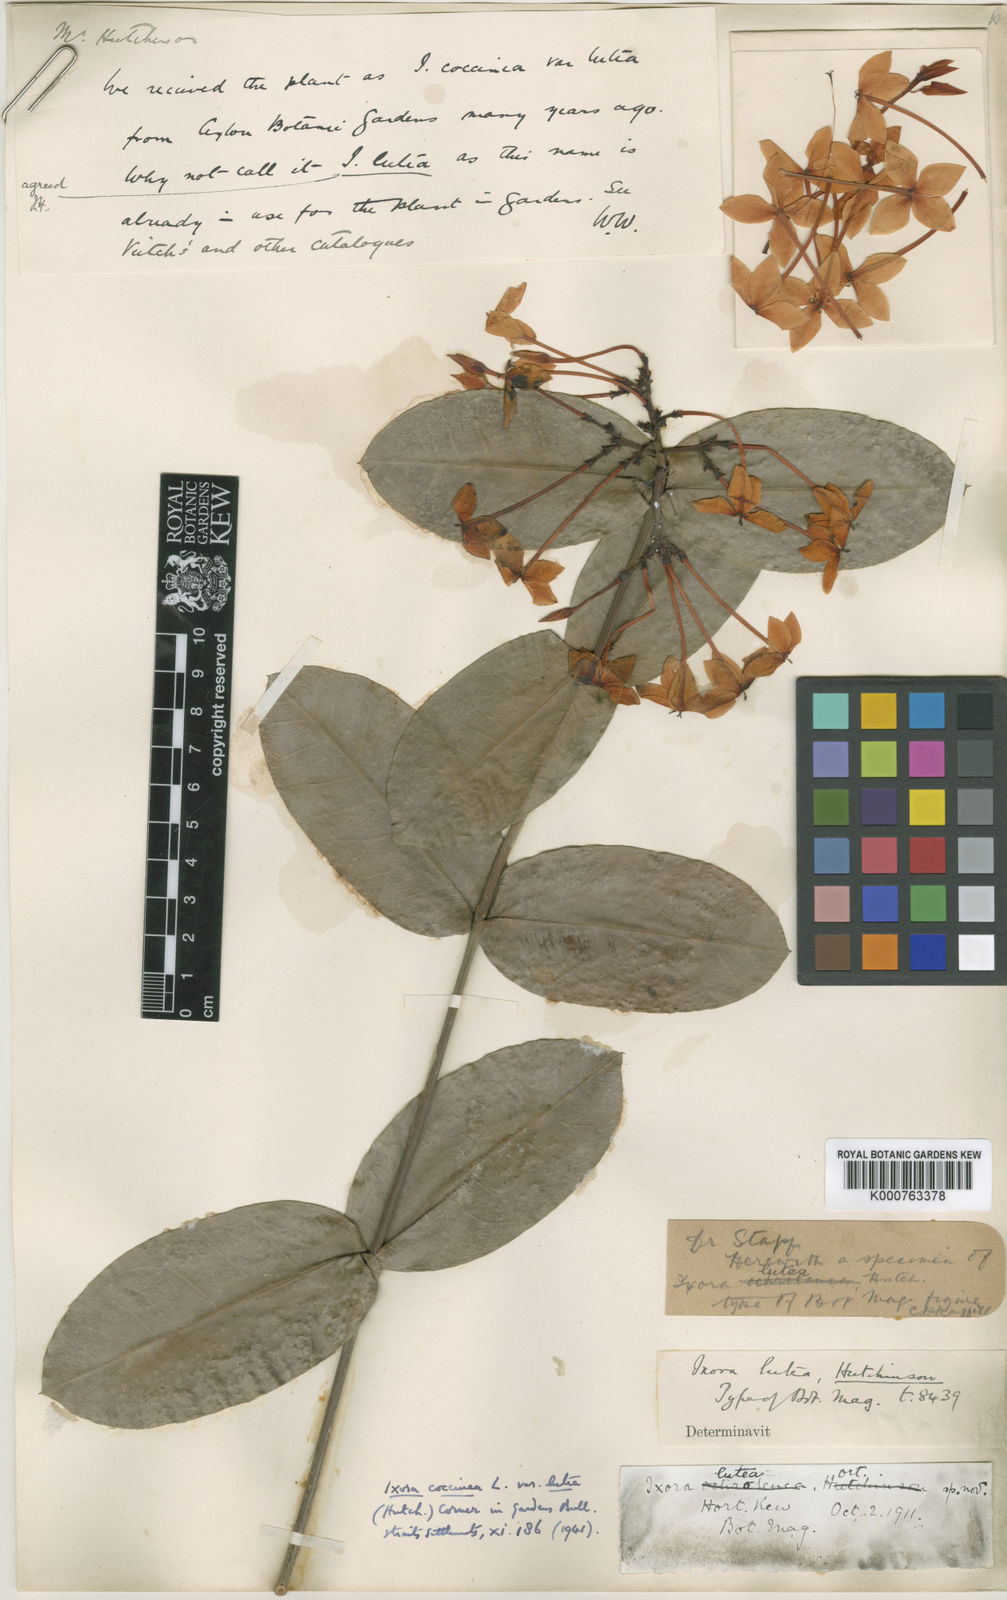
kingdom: Plantae
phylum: Tracheophyta
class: Magnoliopsida
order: Gentianales
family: Rubiaceae
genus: Ixora
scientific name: Ixora coccinea
